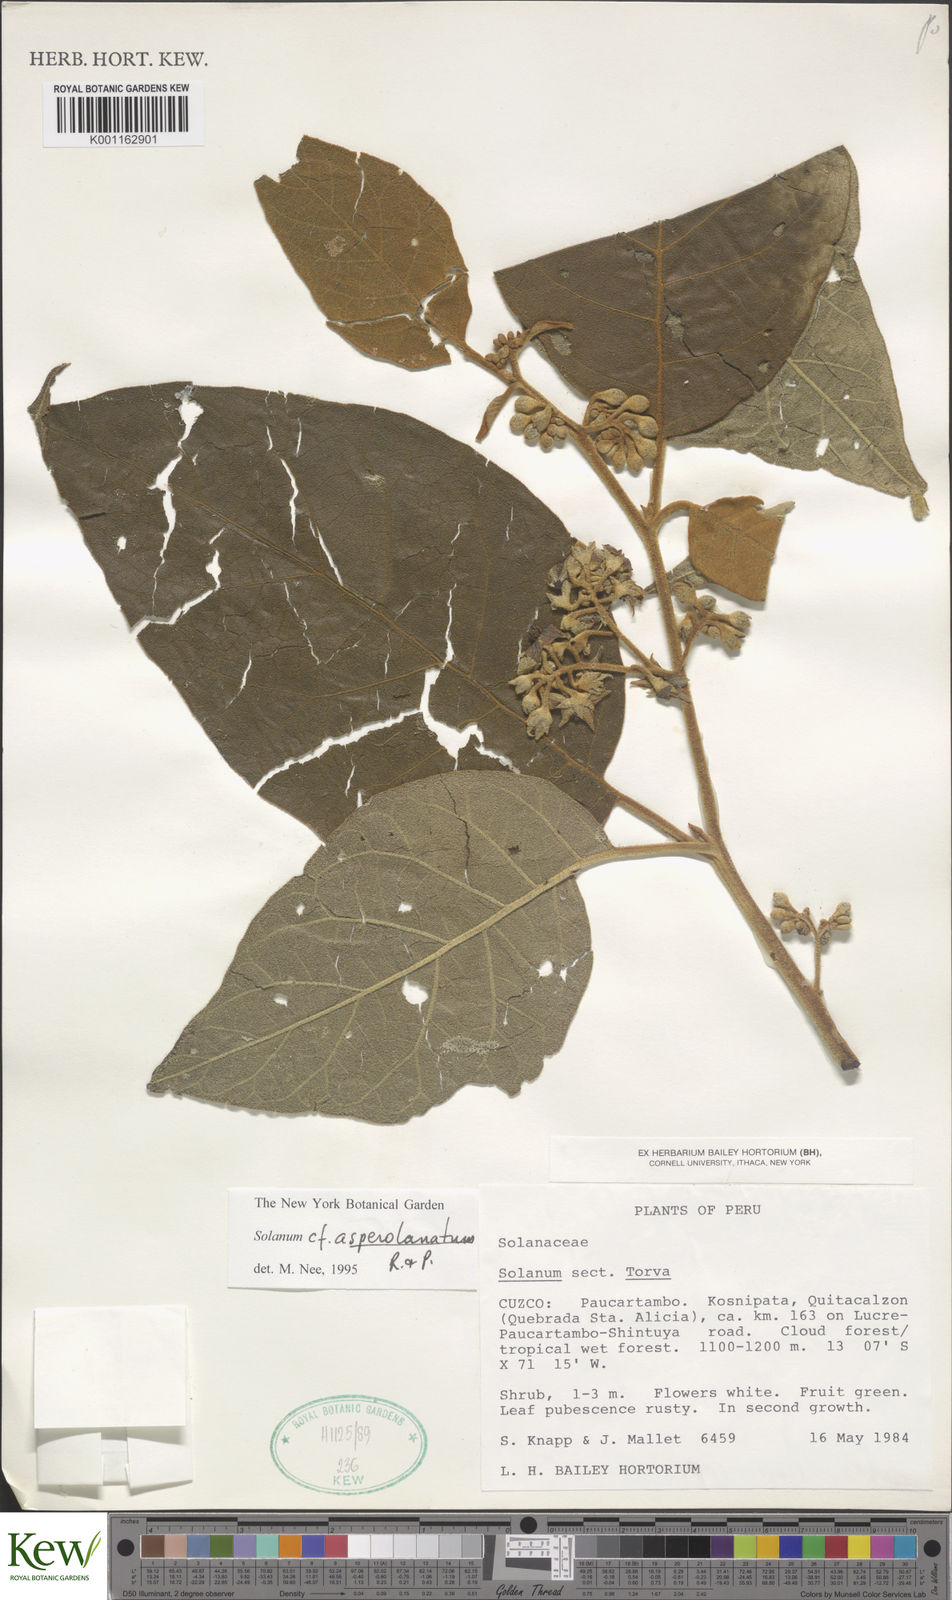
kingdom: Plantae
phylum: Tracheophyta
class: Magnoliopsida
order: Solanales
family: Solanaceae
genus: Solanum
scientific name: Solanum asperolanatum
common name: Devil's-fig
